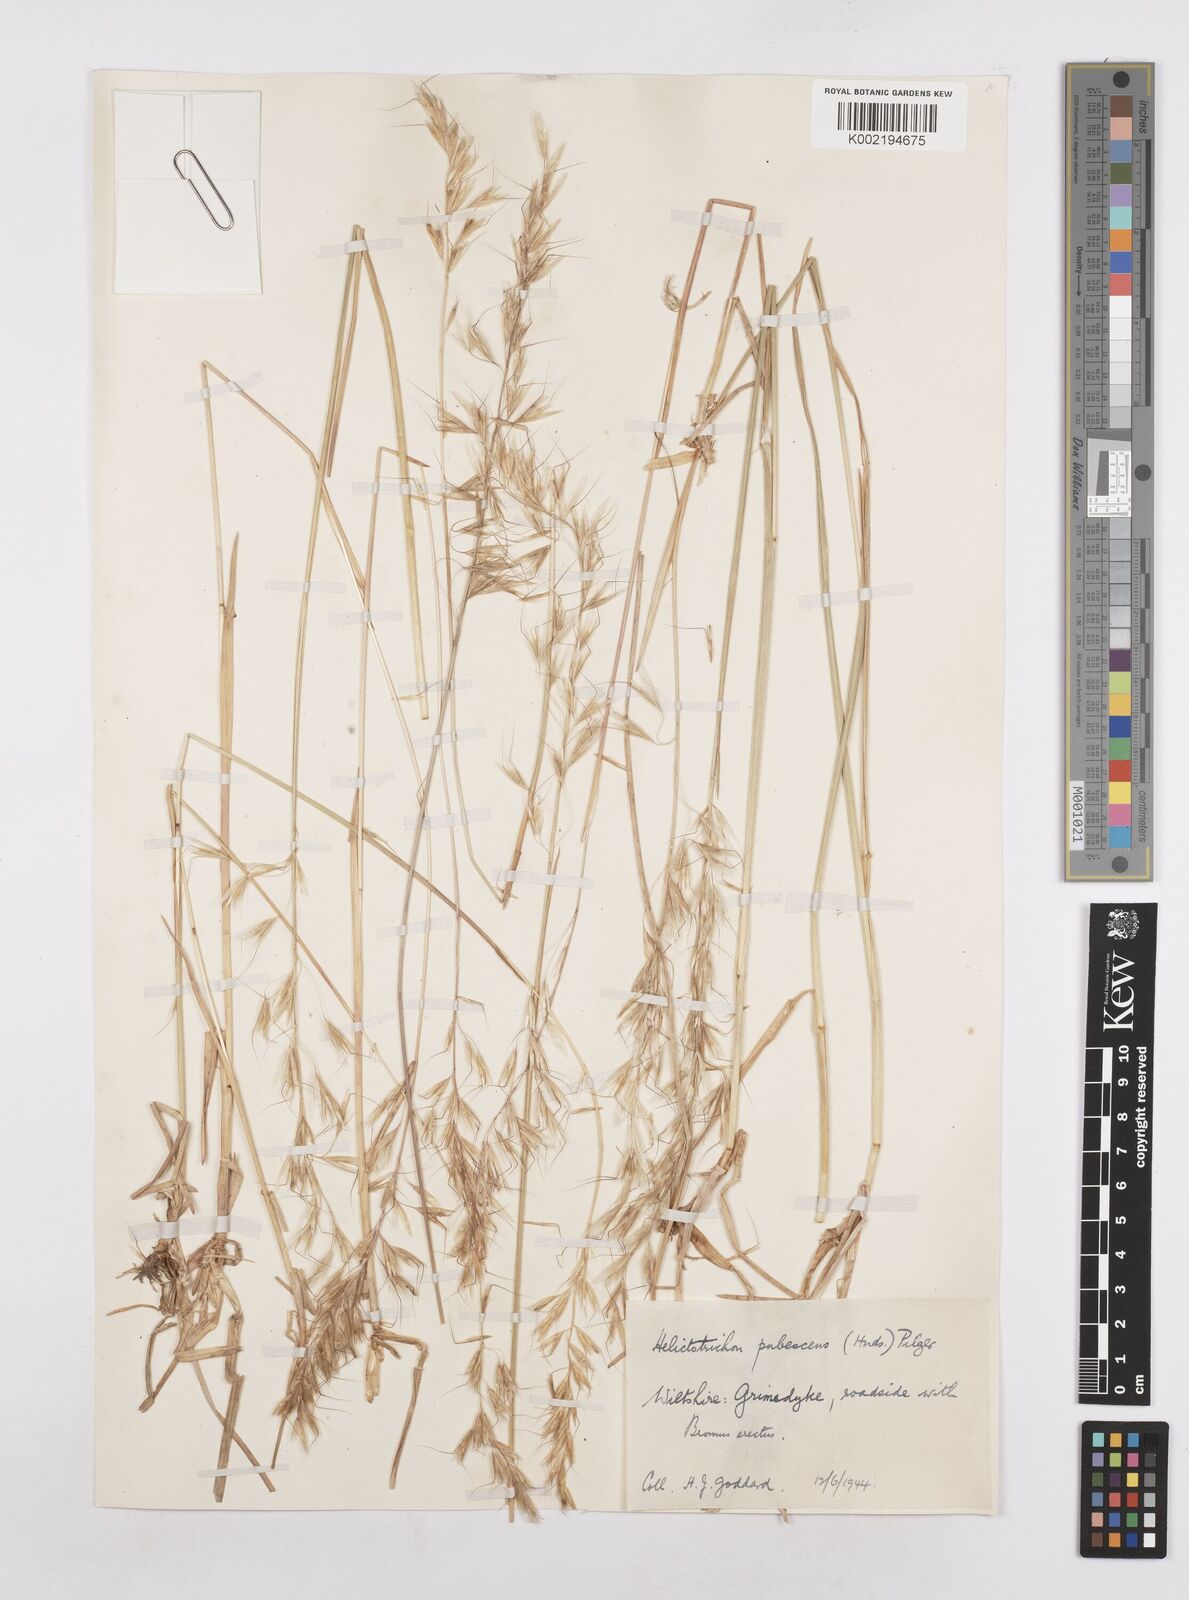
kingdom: Plantae
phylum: Tracheophyta
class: Liliopsida
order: Poales
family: Poaceae
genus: Avenula
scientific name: Avenula pubescens
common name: Downy alpine oatgrass
